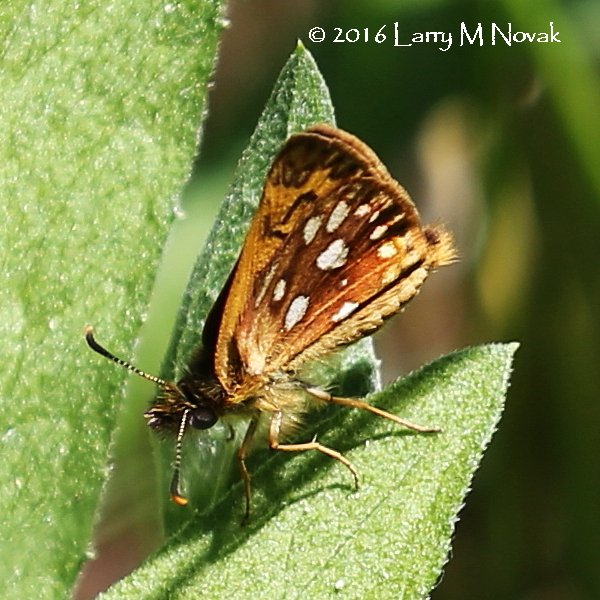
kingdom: Animalia
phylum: Arthropoda
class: Insecta
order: Lepidoptera
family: Hesperiidae
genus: Carterocephalus
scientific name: Carterocephalus palaemon
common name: Chequered Skipper
